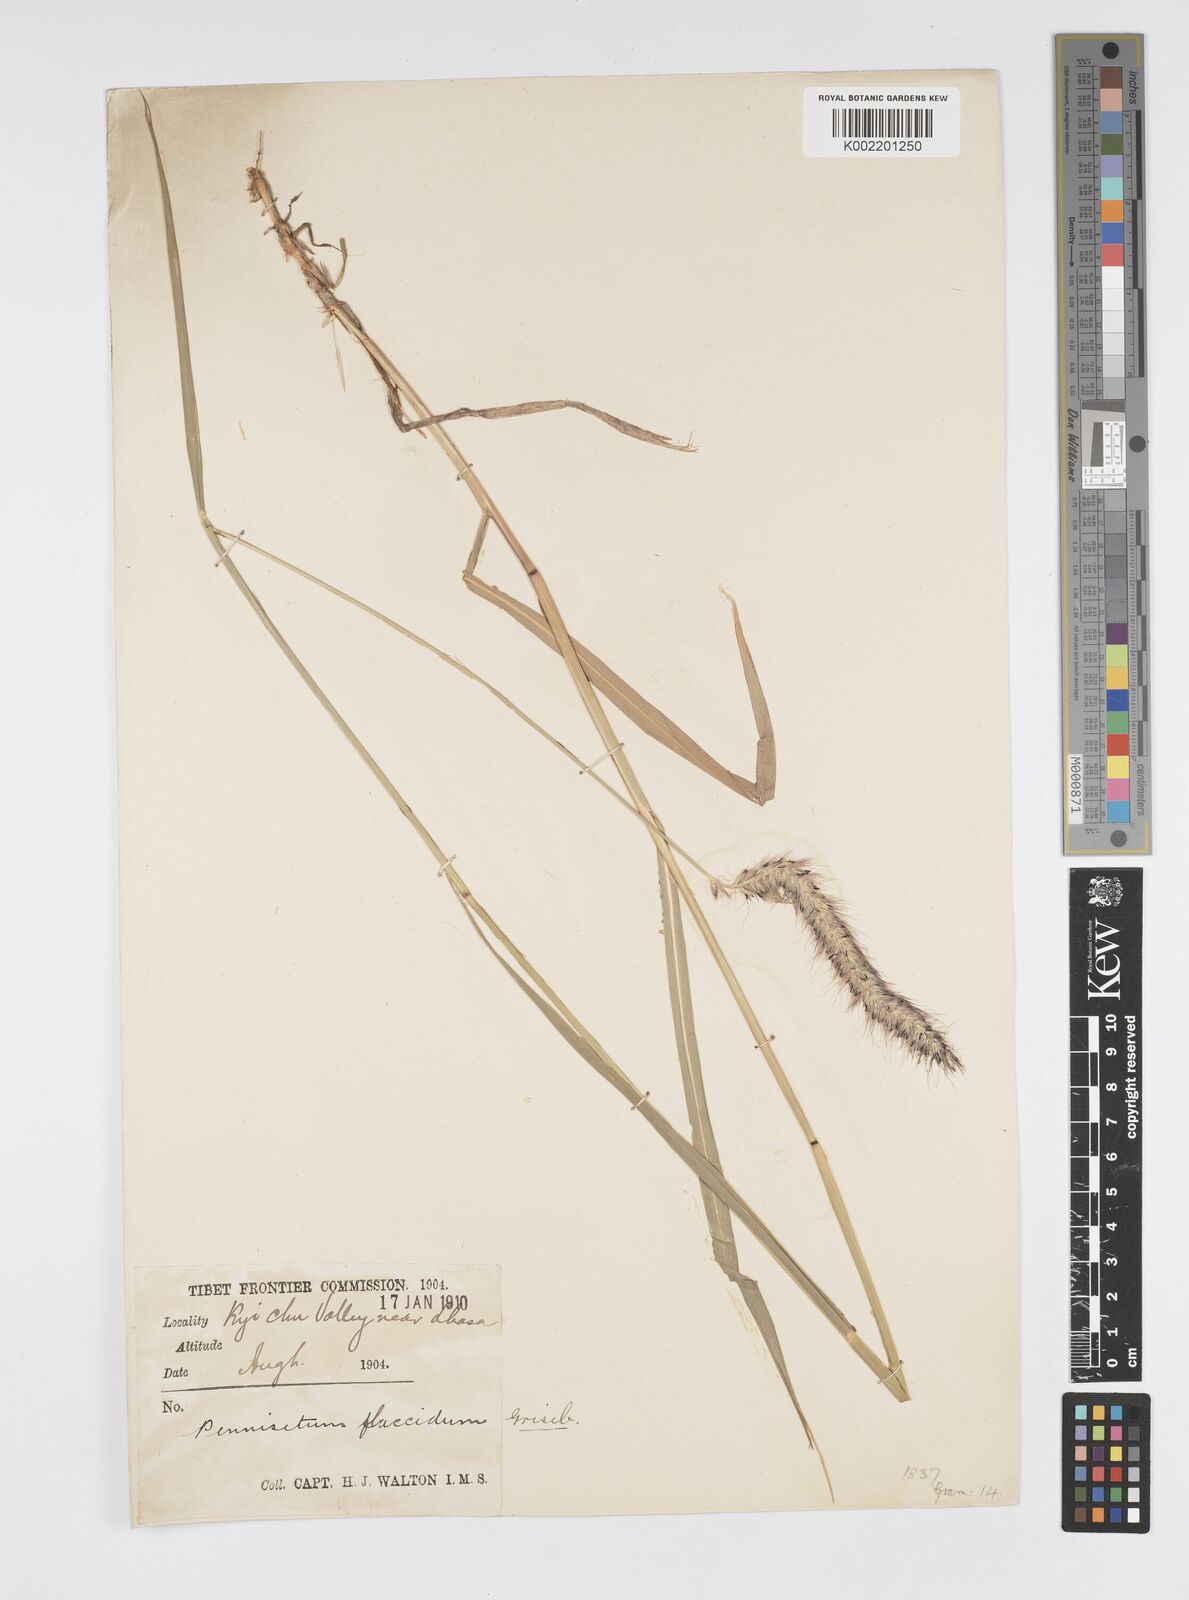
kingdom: Plantae
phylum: Tracheophyta
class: Liliopsida
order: Poales
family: Poaceae
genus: Cenchrus
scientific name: Cenchrus flaccidus
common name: Flaccid grass
